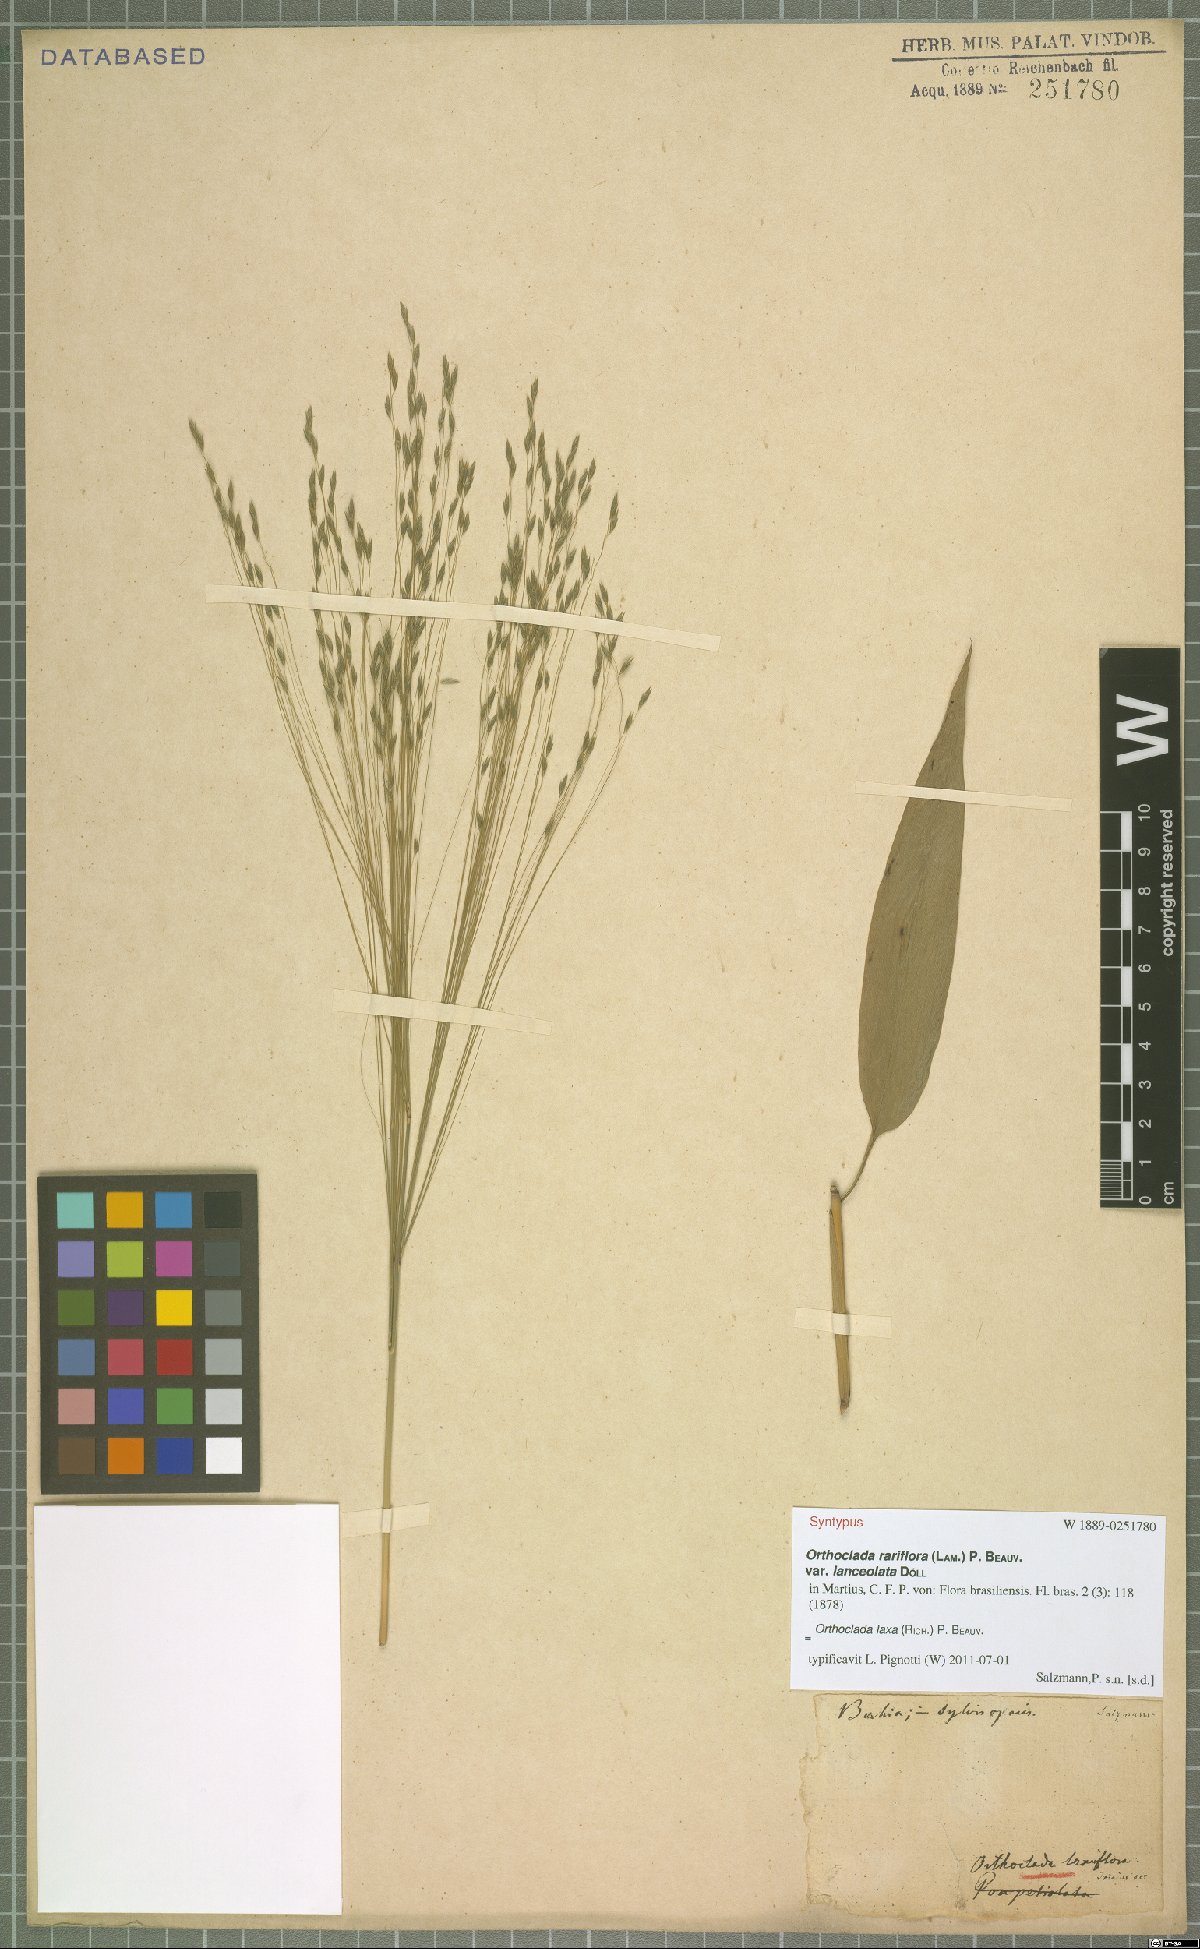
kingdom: Plantae
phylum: Tracheophyta
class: Liliopsida
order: Poales
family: Poaceae
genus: Orthoclada
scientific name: Orthoclada laxa
